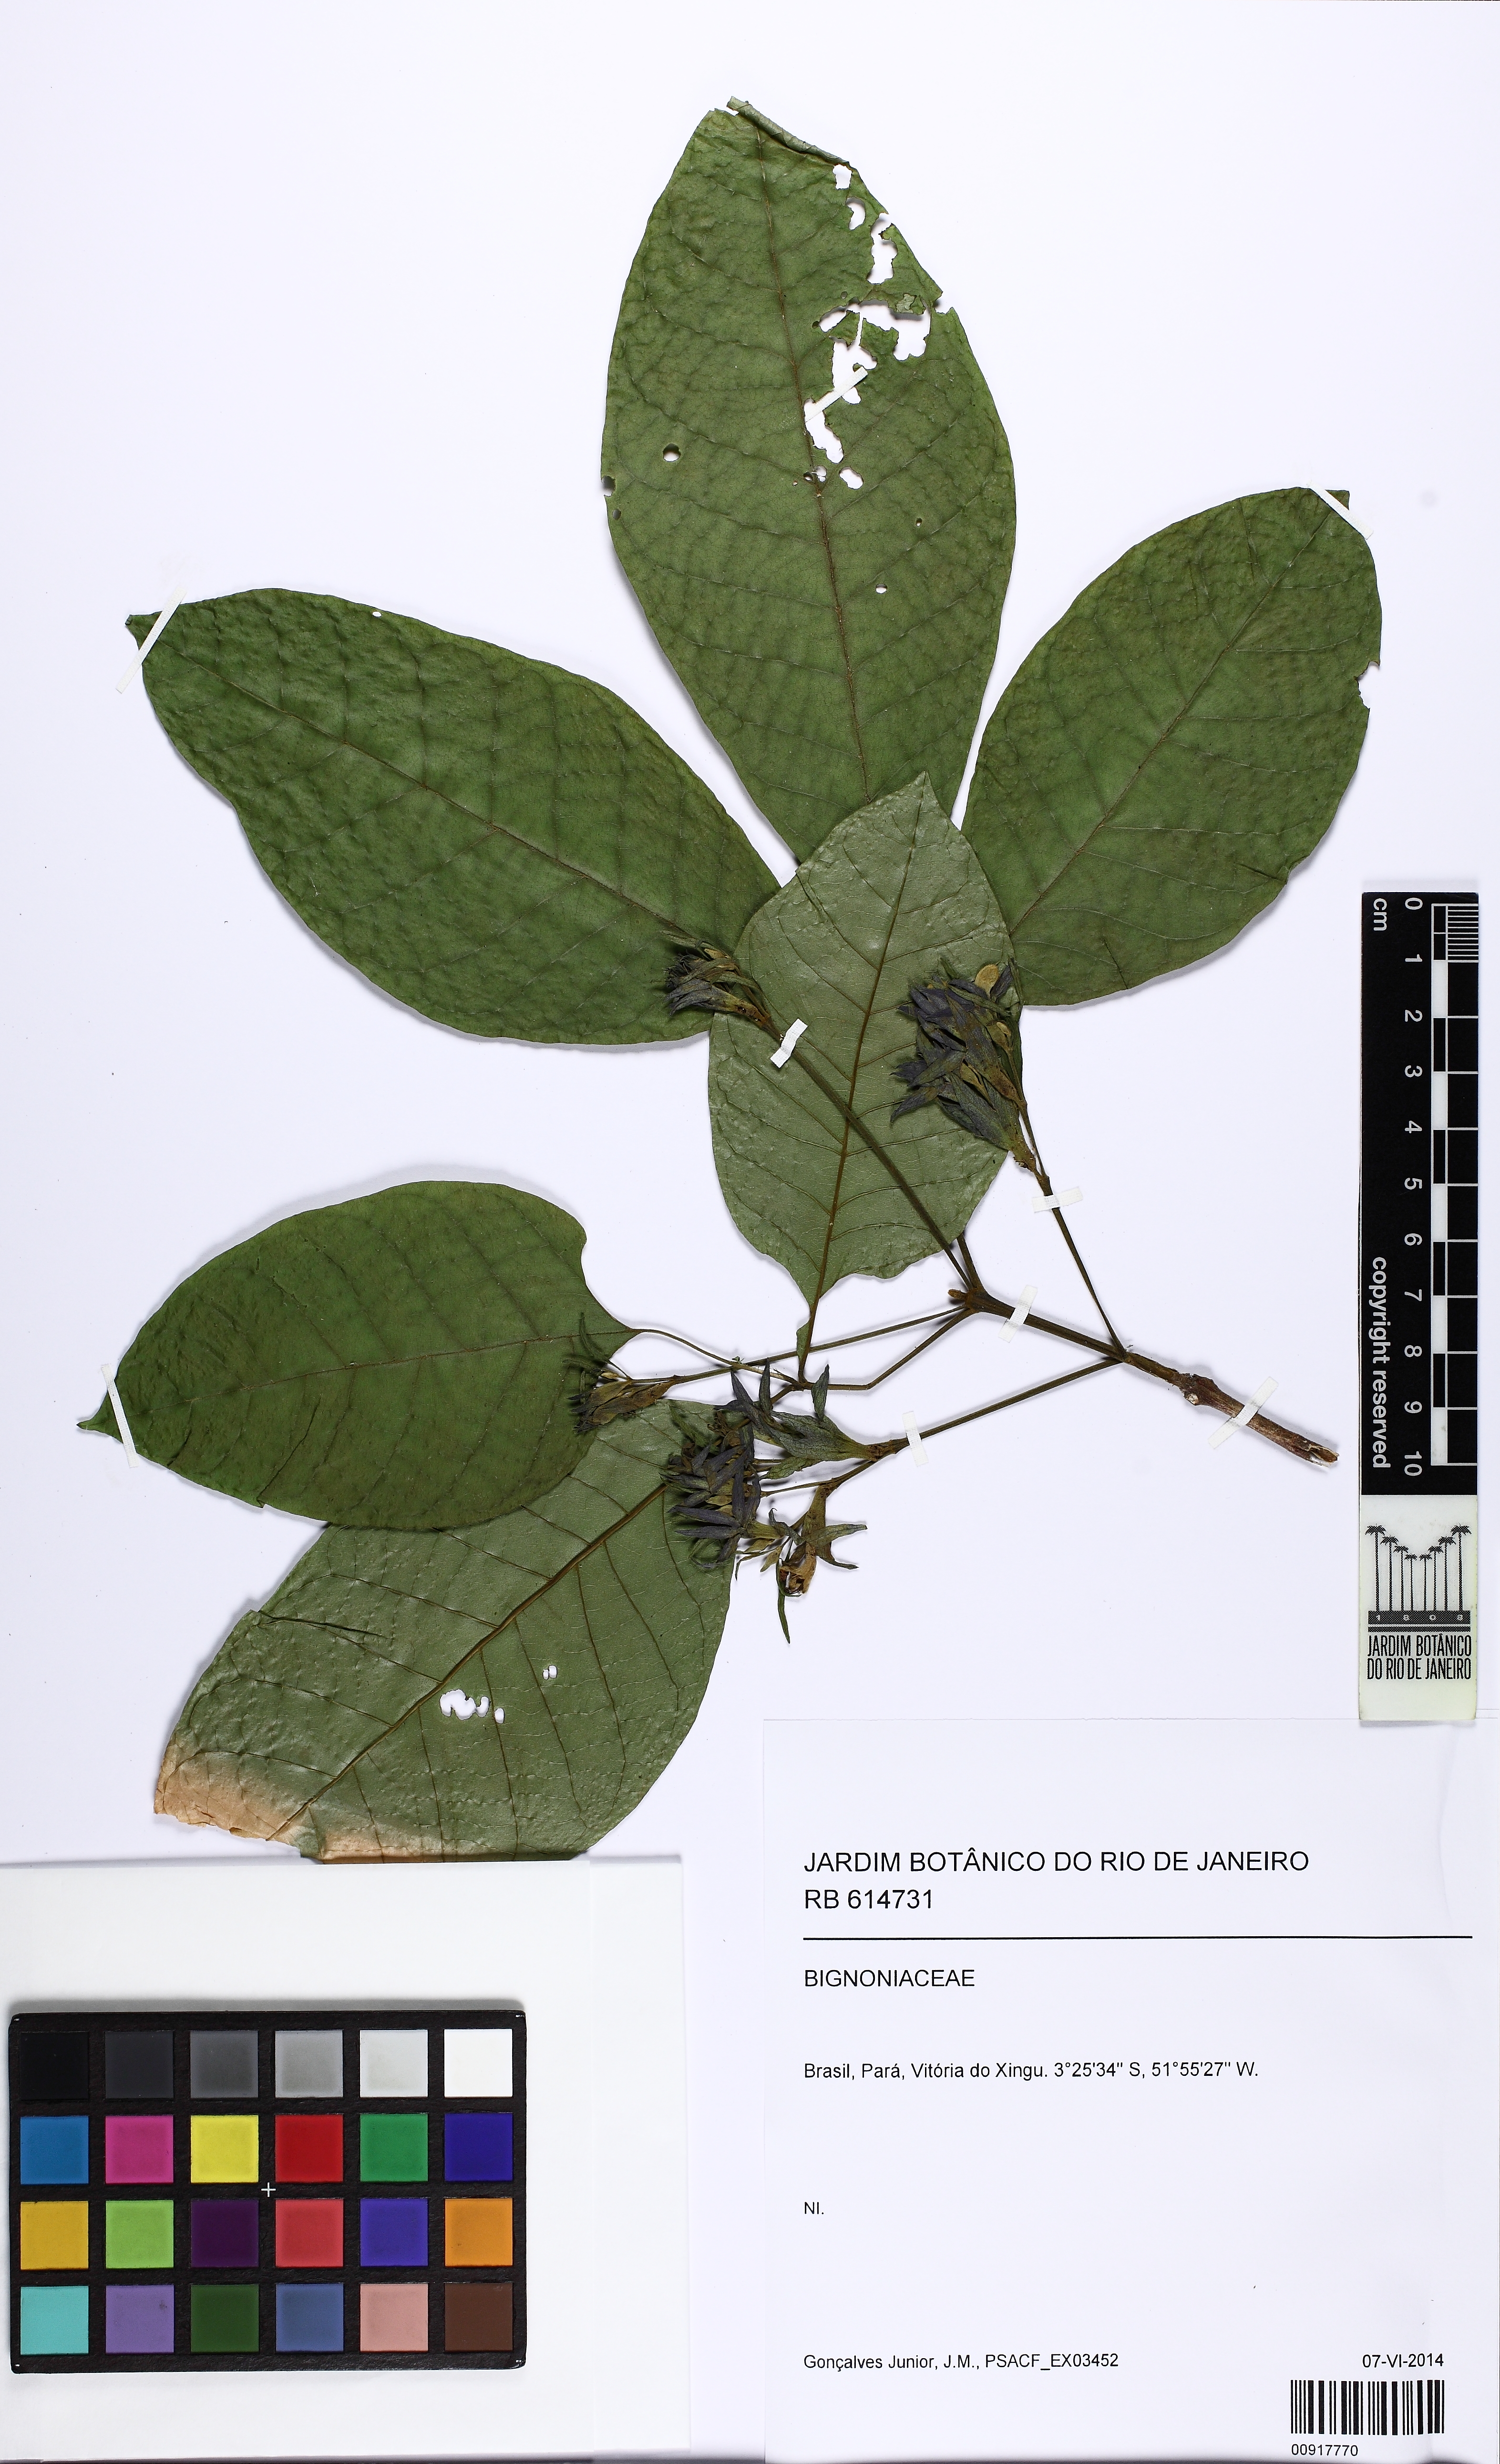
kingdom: Plantae
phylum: Tracheophyta
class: Magnoliopsida
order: Lamiales
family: Lamiaceae
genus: Vitex
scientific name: Vitex
